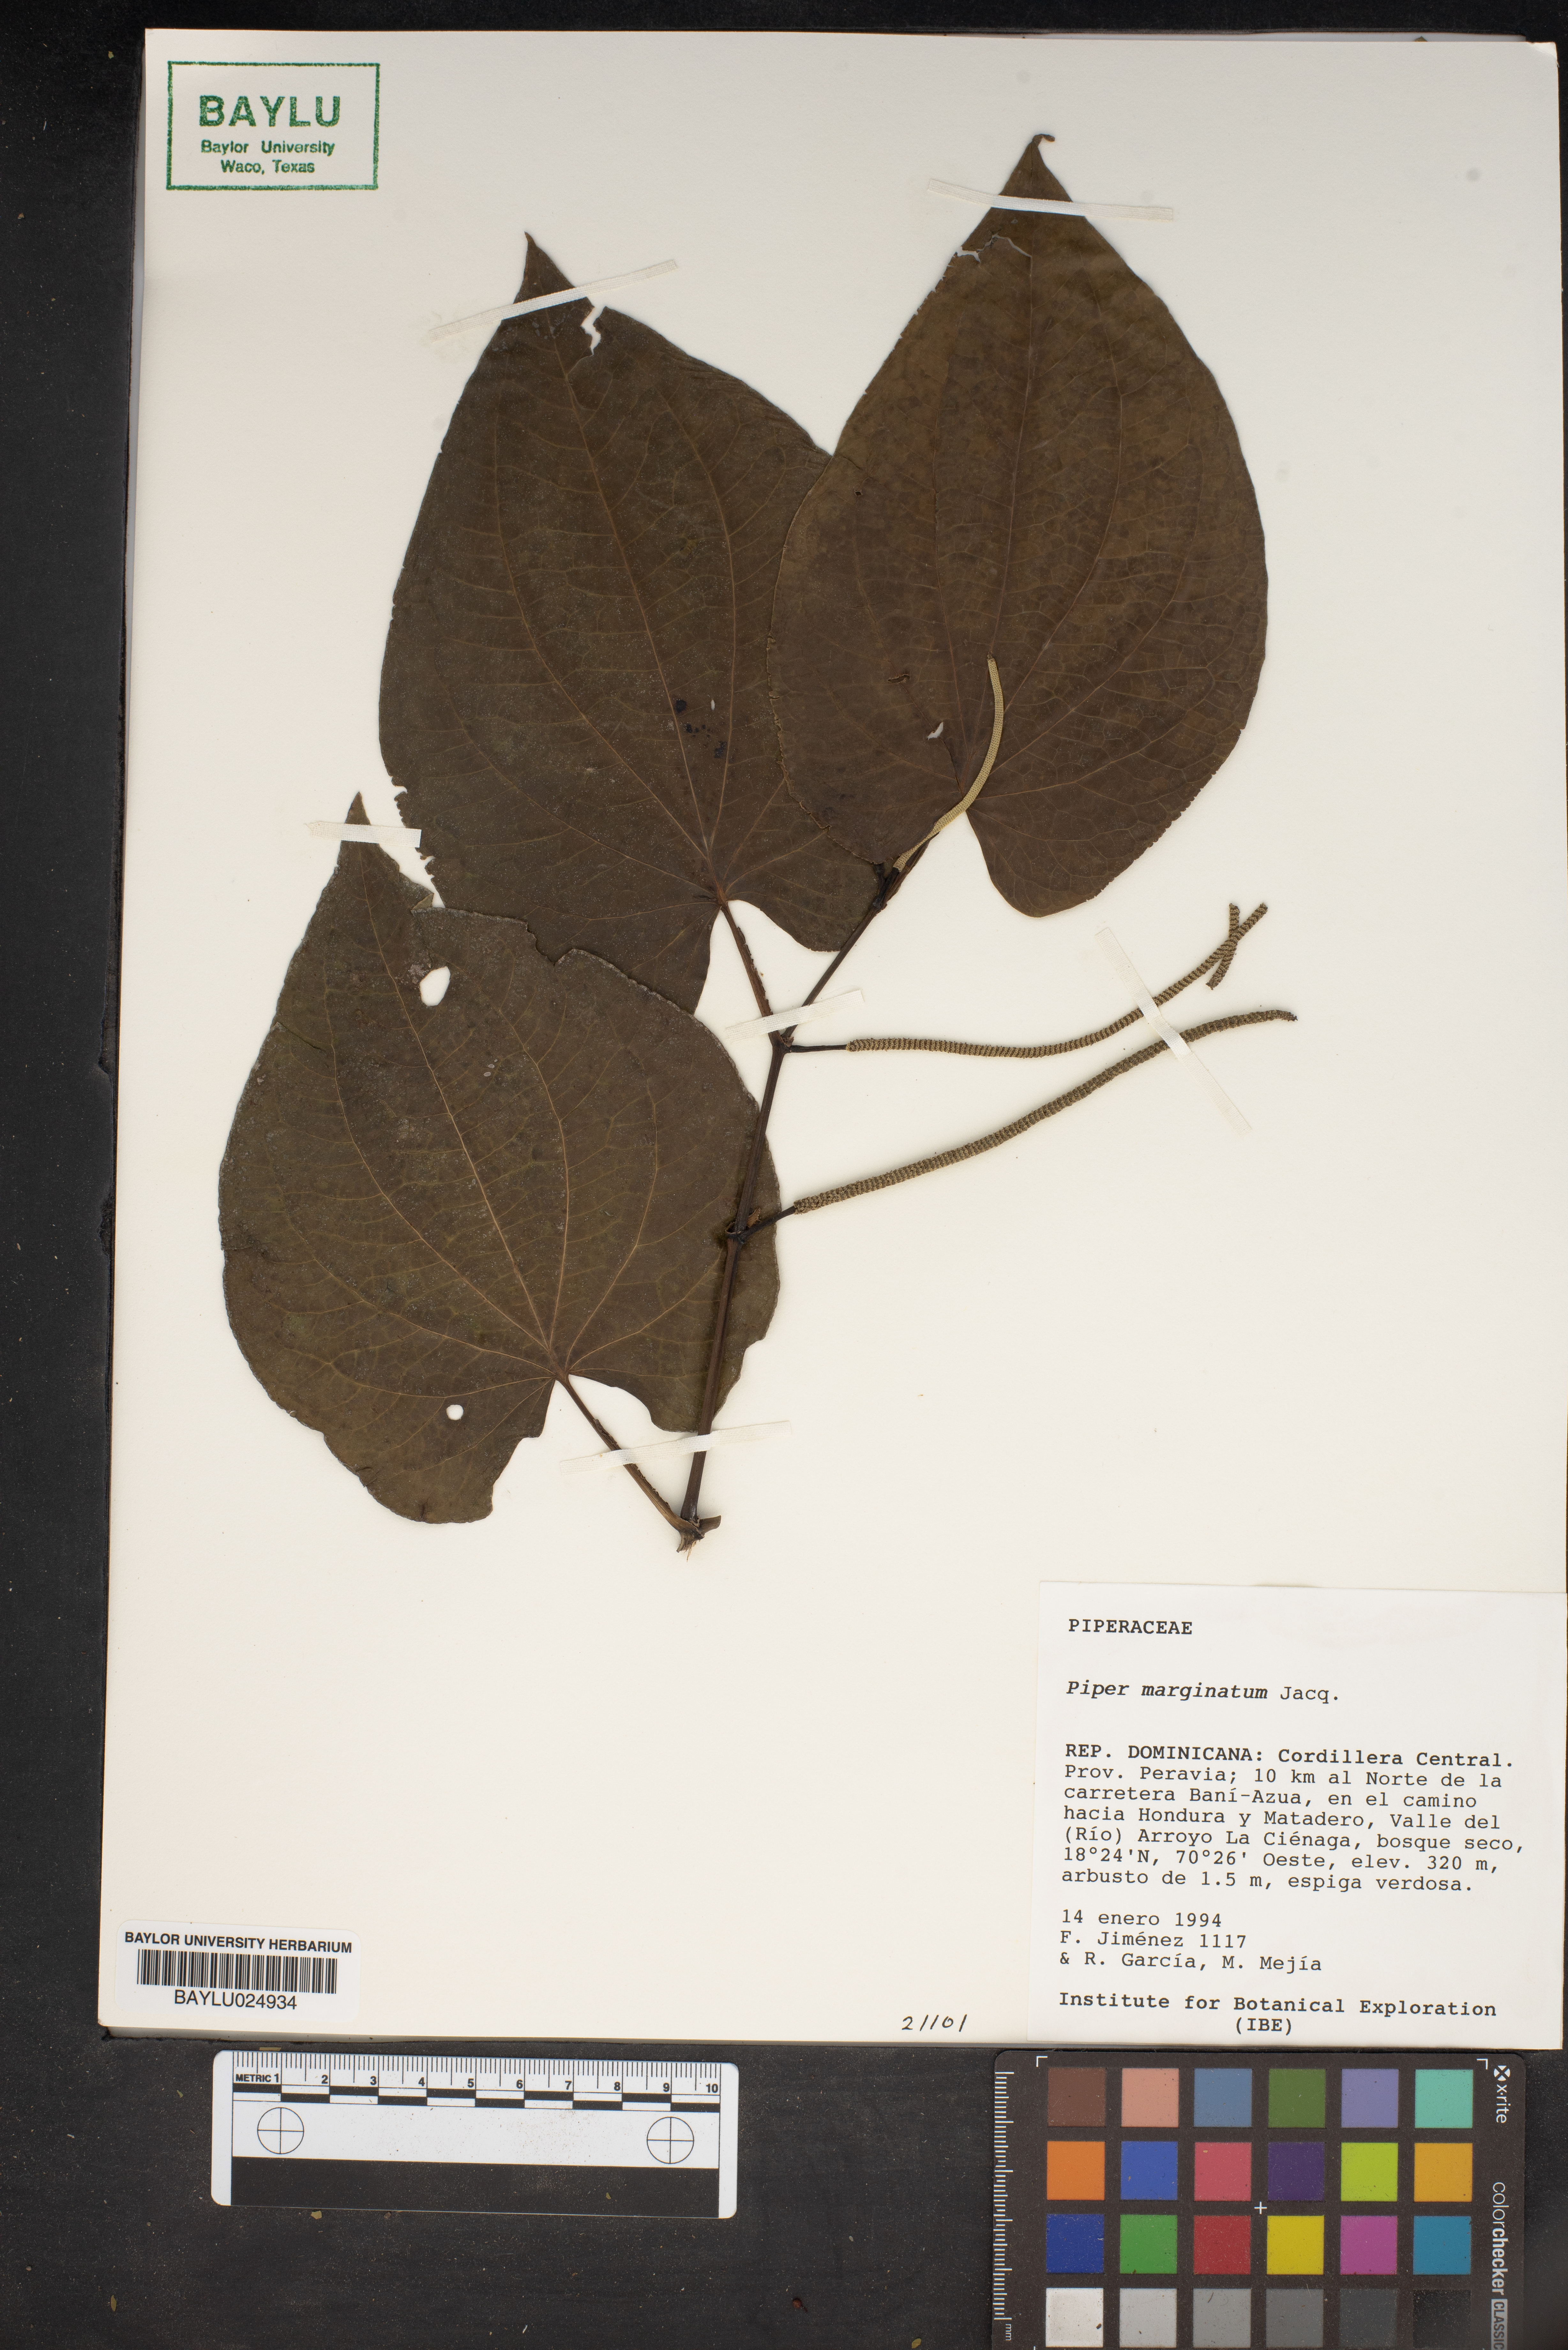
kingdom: Plantae
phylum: Tracheophyta
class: Magnoliopsida
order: Piperales
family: Piperaceae
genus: Piper
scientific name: Piper marginatum
